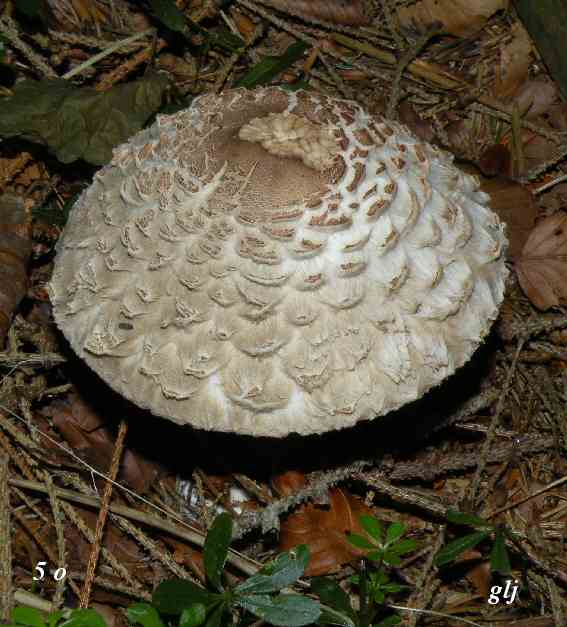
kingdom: Fungi
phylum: Basidiomycota
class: Agaricomycetes
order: Agaricales
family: Agaricaceae
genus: Chlorophyllum
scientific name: Chlorophyllum rhacodes
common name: ægte rabarberhat
